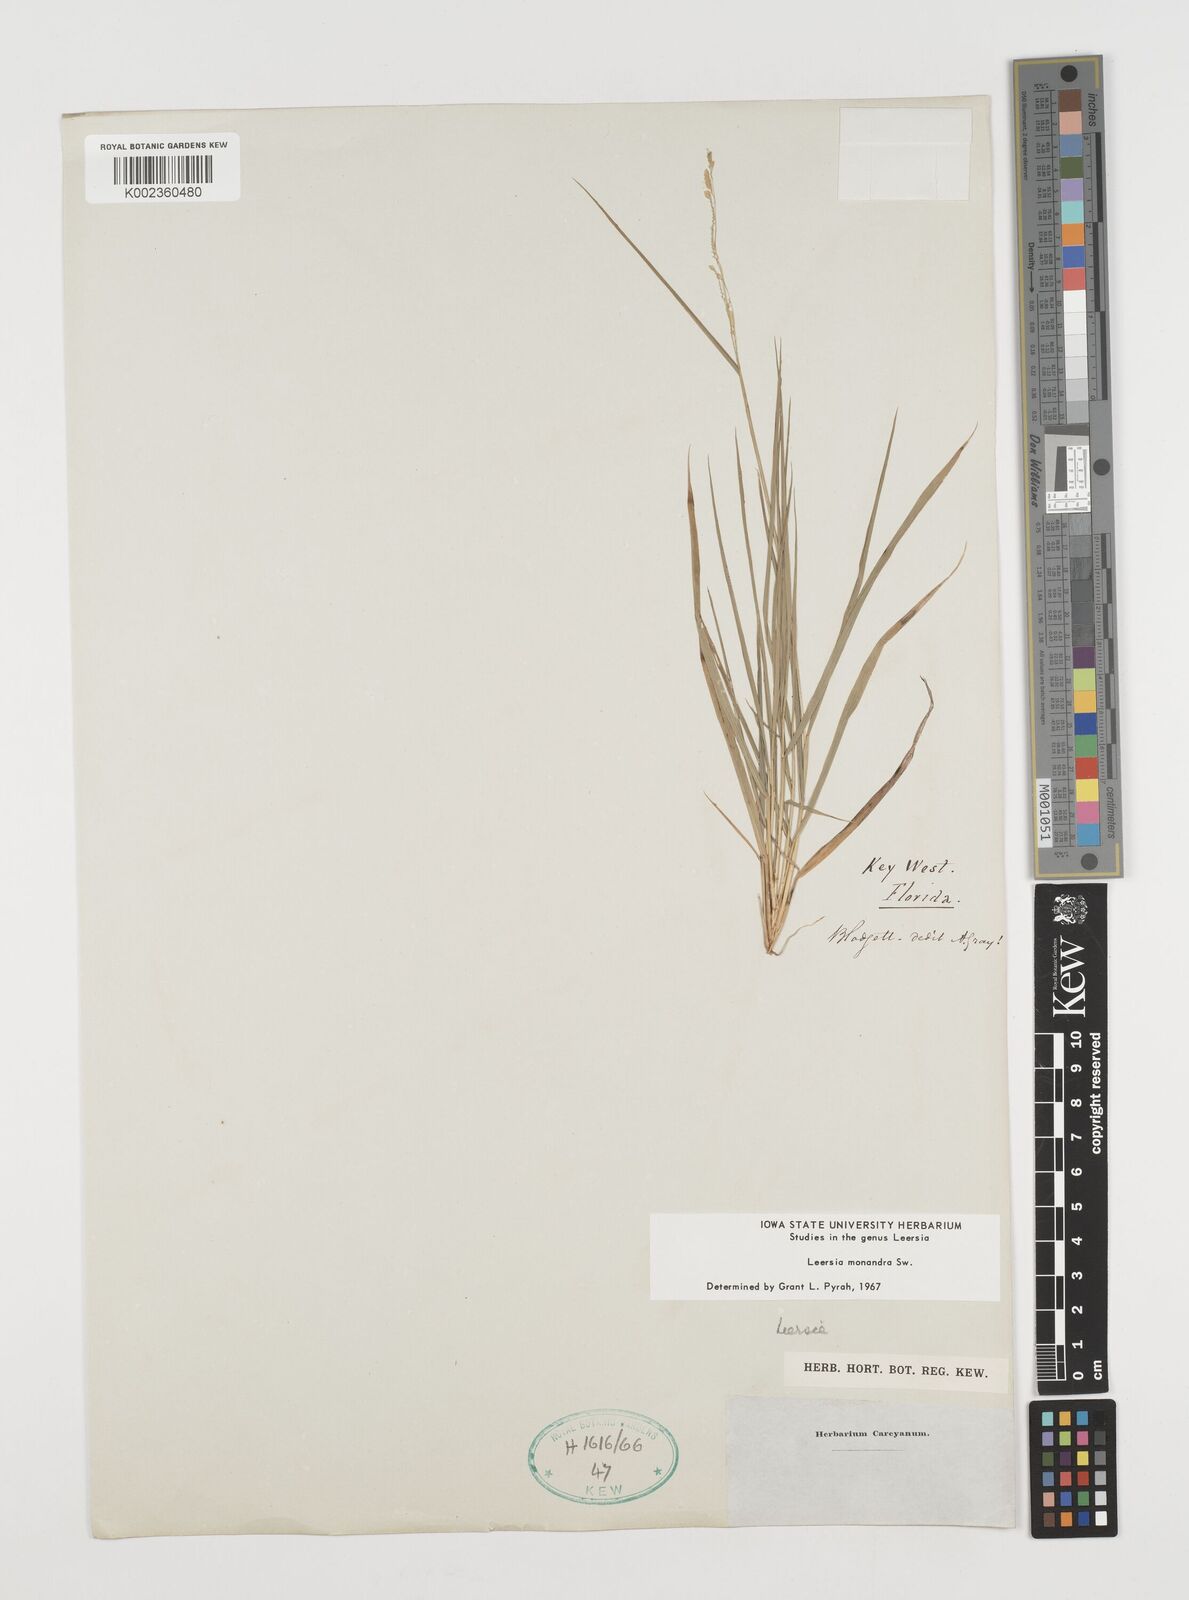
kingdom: Plantae
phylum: Tracheophyta
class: Liliopsida
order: Poales
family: Poaceae
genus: Leersia
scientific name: Leersia monandra
